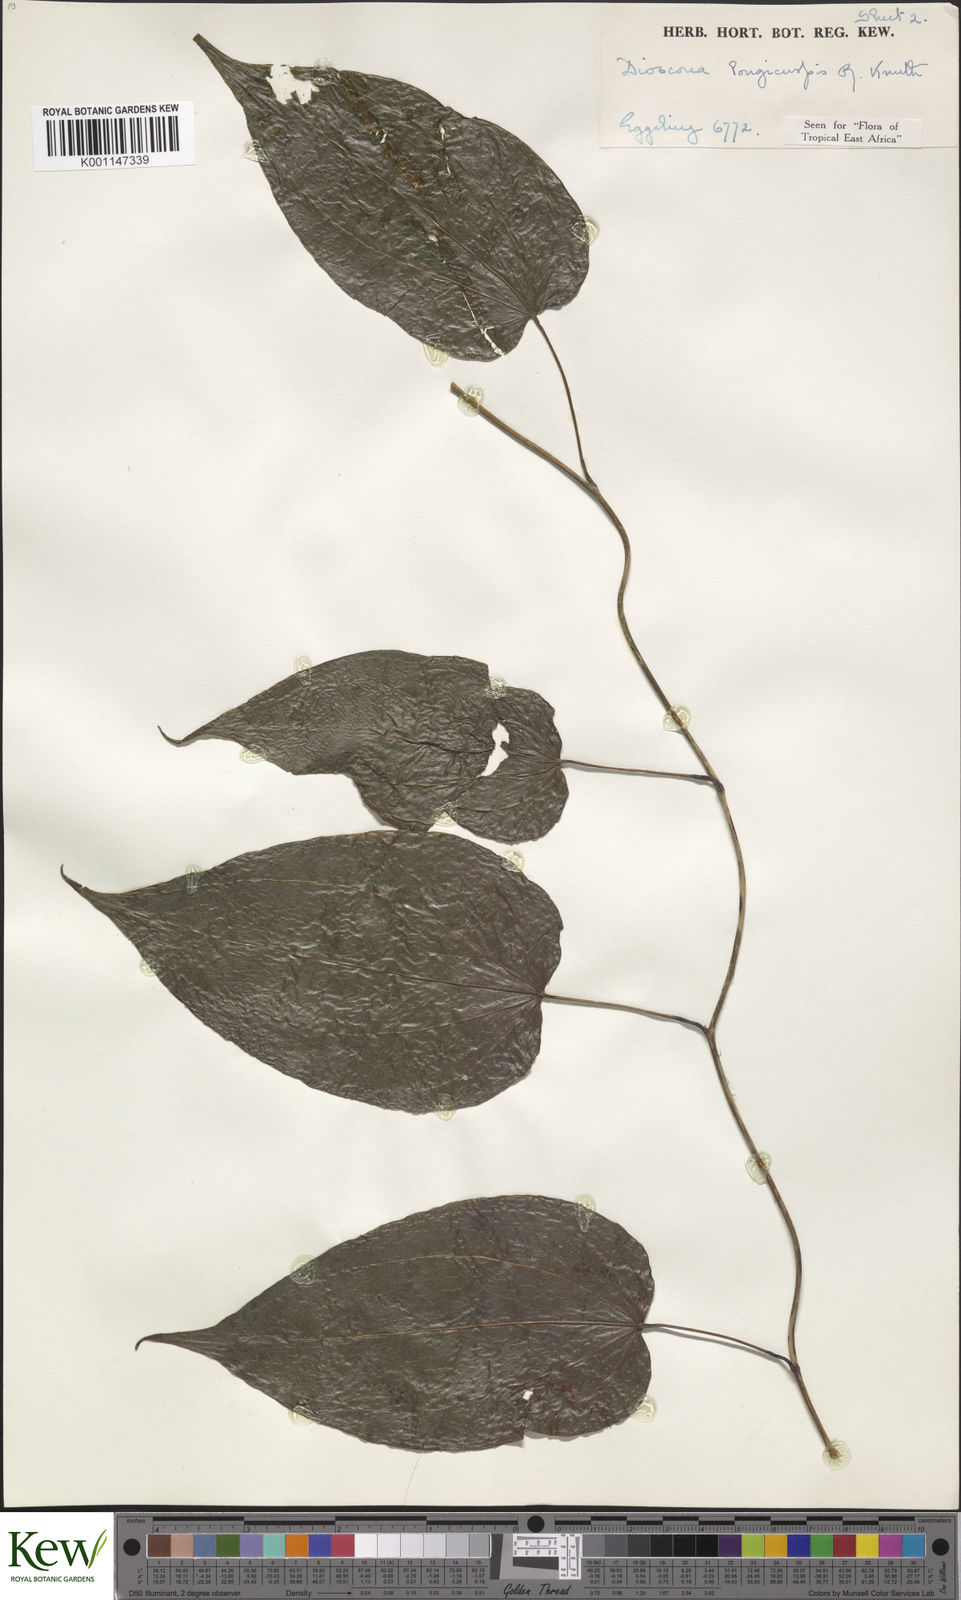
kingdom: Plantae
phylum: Tracheophyta
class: Liliopsida
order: Dioscoreales
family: Dioscoreaceae
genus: Dioscorea
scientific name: Dioscorea longicuspis
